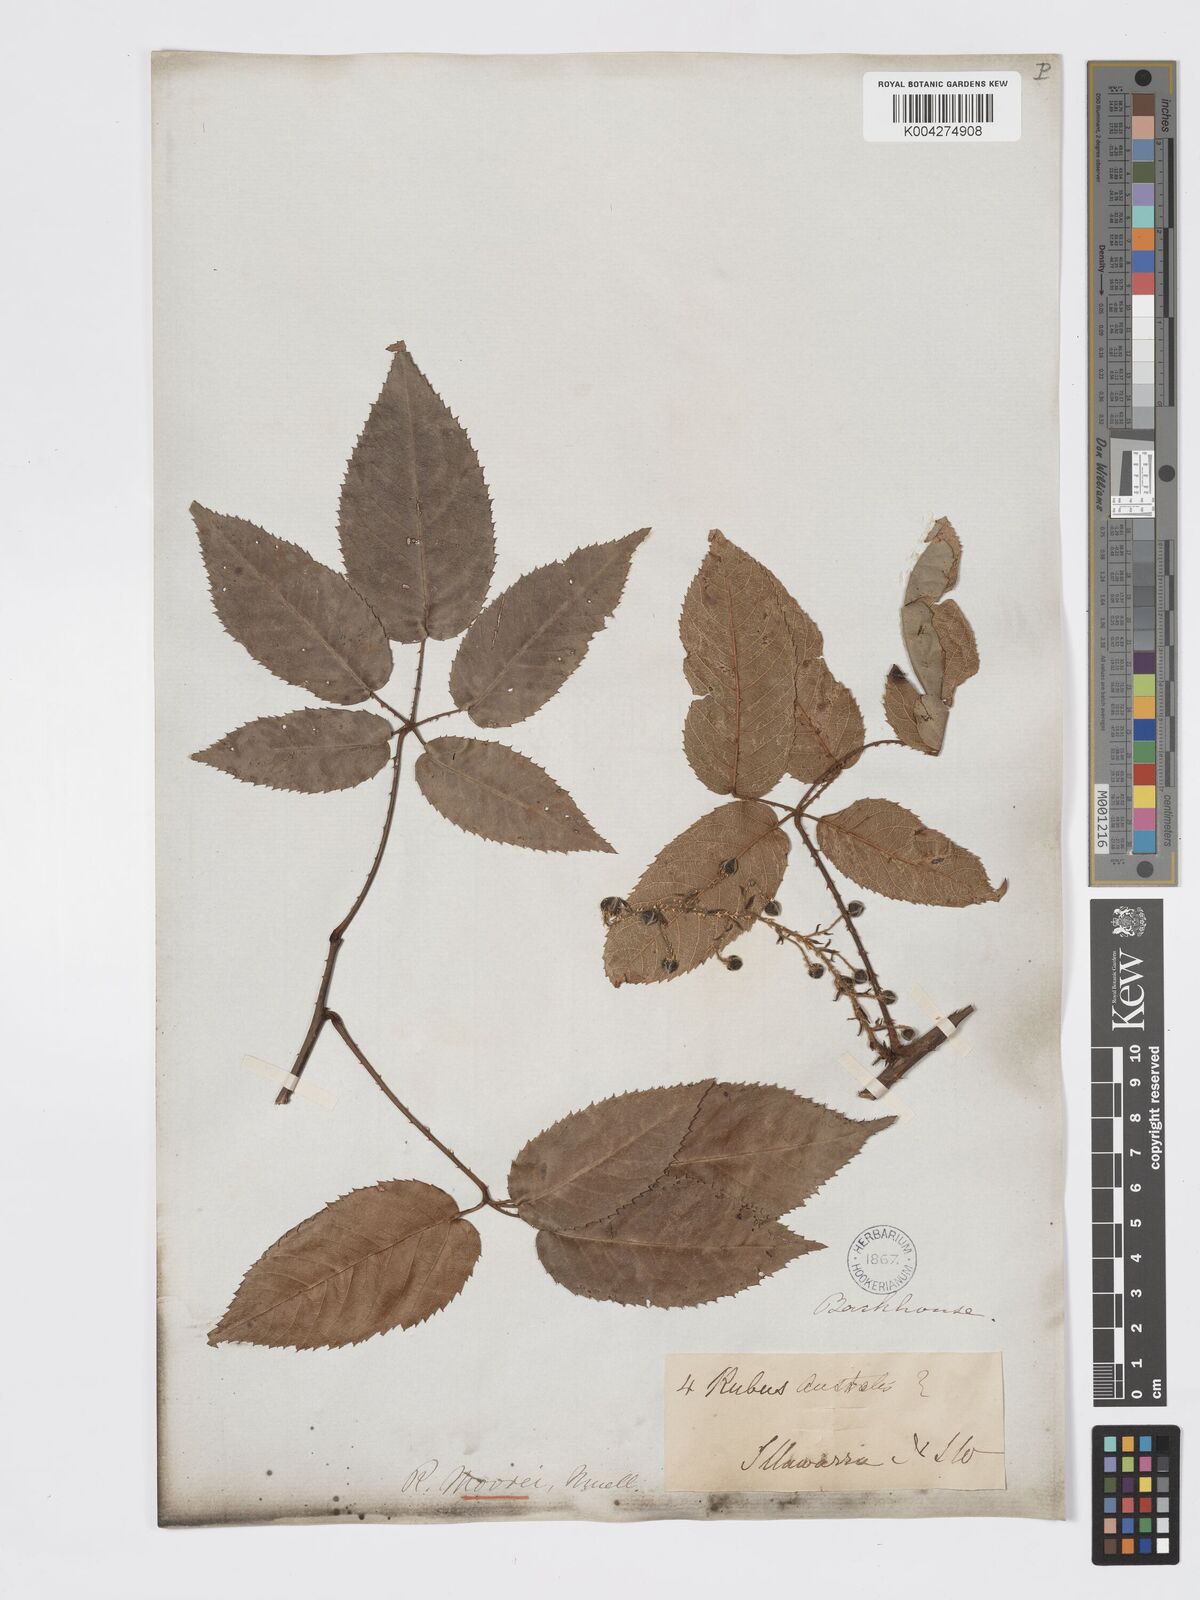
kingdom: Plantae
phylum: Tracheophyta
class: Magnoliopsida
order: Rosales
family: Rosaceae
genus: Rubus
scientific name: Rubus moorei
